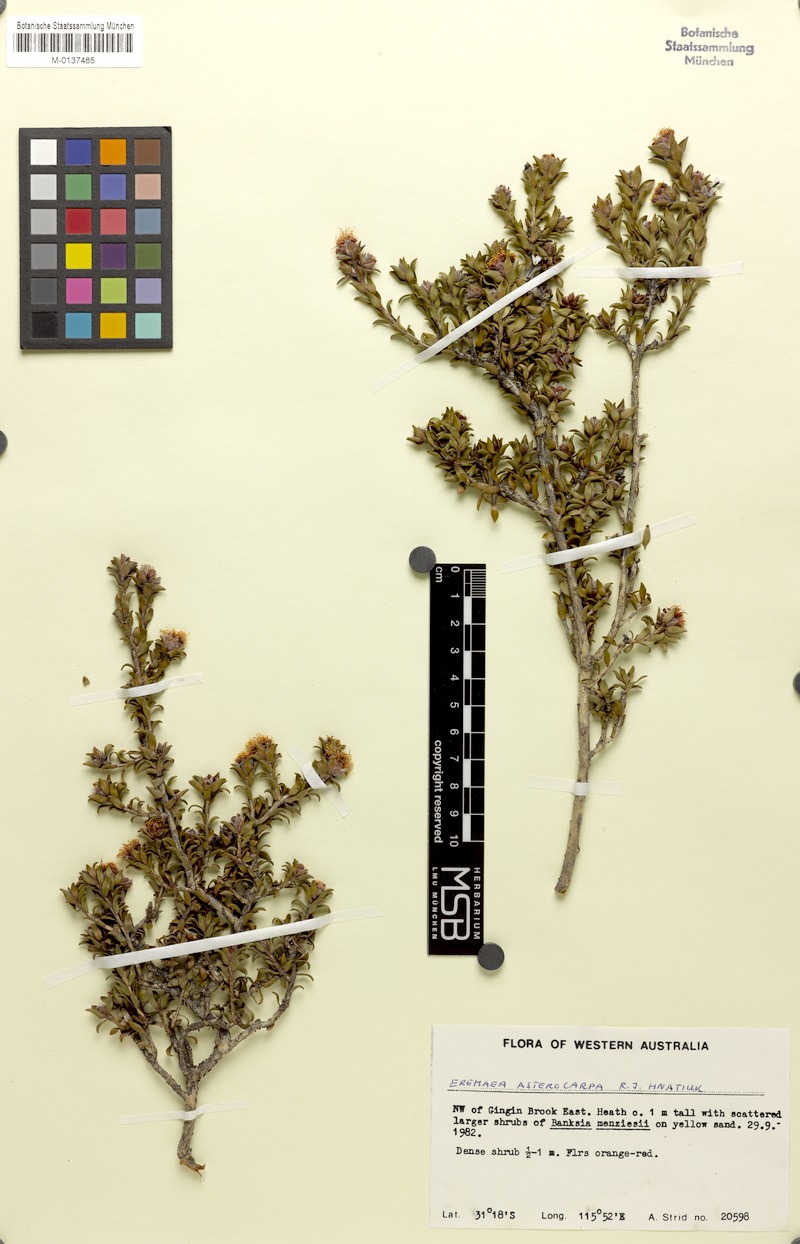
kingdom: Plantae
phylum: Tracheophyta
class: Magnoliopsida
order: Myrtales
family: Myrtaceae
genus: Melaleuca
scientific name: Melaleuca asterocarpa
